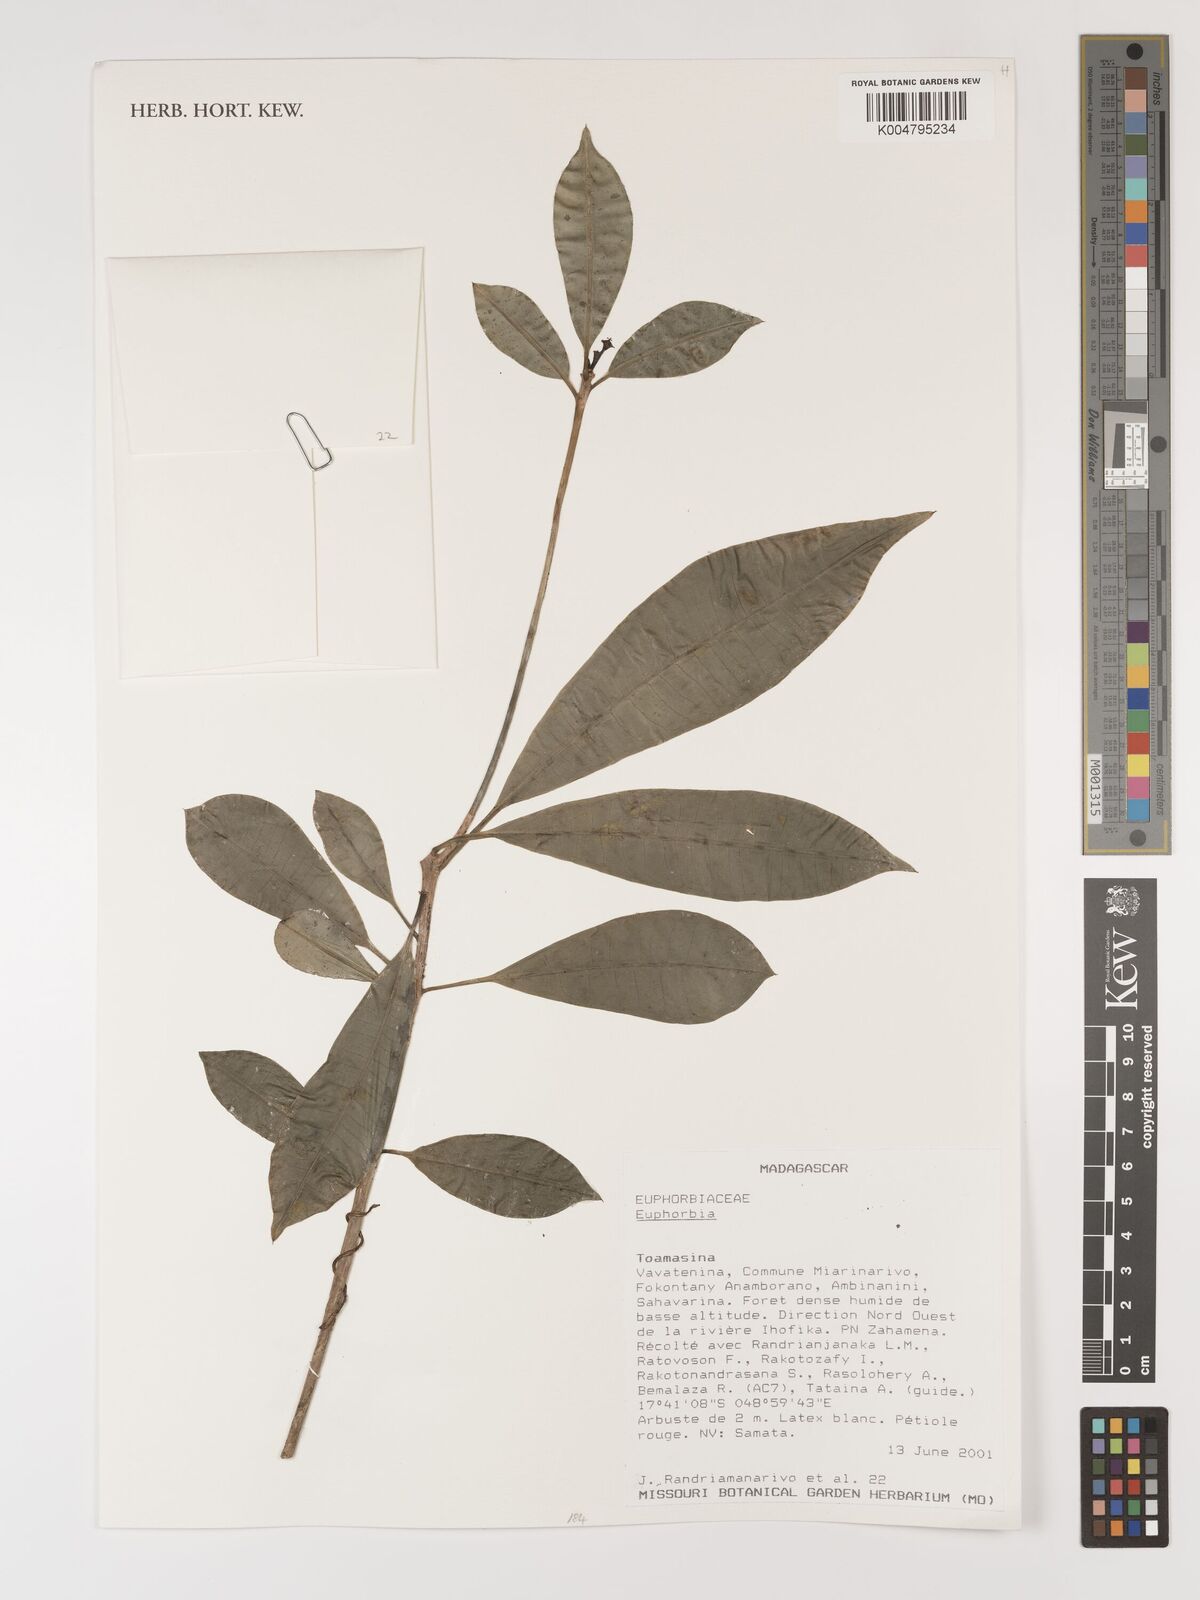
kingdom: Plantae
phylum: Tracheophyta
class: Magnoliopsida
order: Malpighiales
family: Euphorbiaceae
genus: Euphorbia
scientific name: Euphorbia
